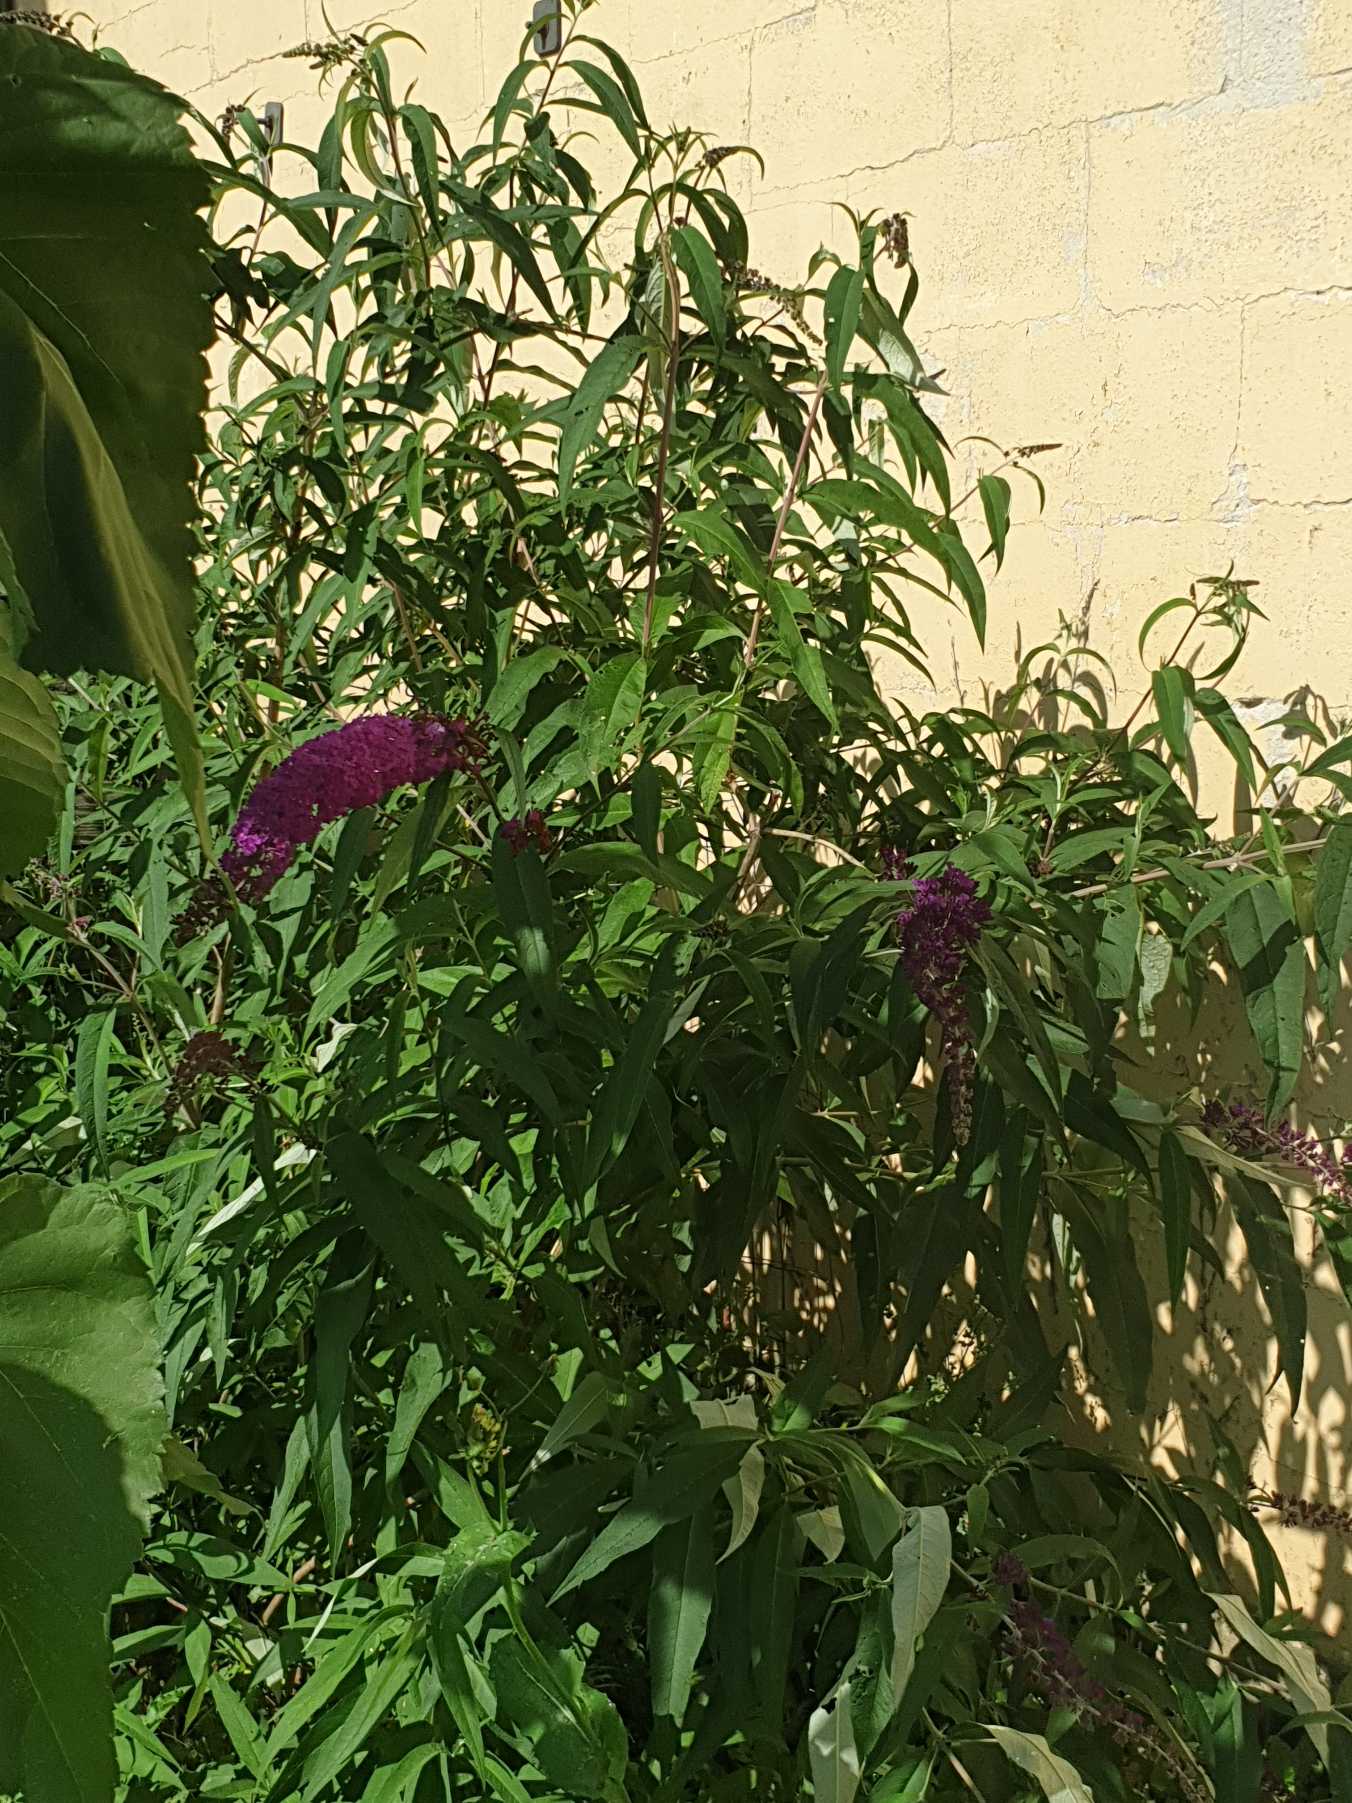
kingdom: Plantae
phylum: Tracheophyta
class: Magnoliopsida
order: Lamiales
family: Scrophulariaceae
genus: Buddleja
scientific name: Buddleja davidii
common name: Sommerfuglebusk
